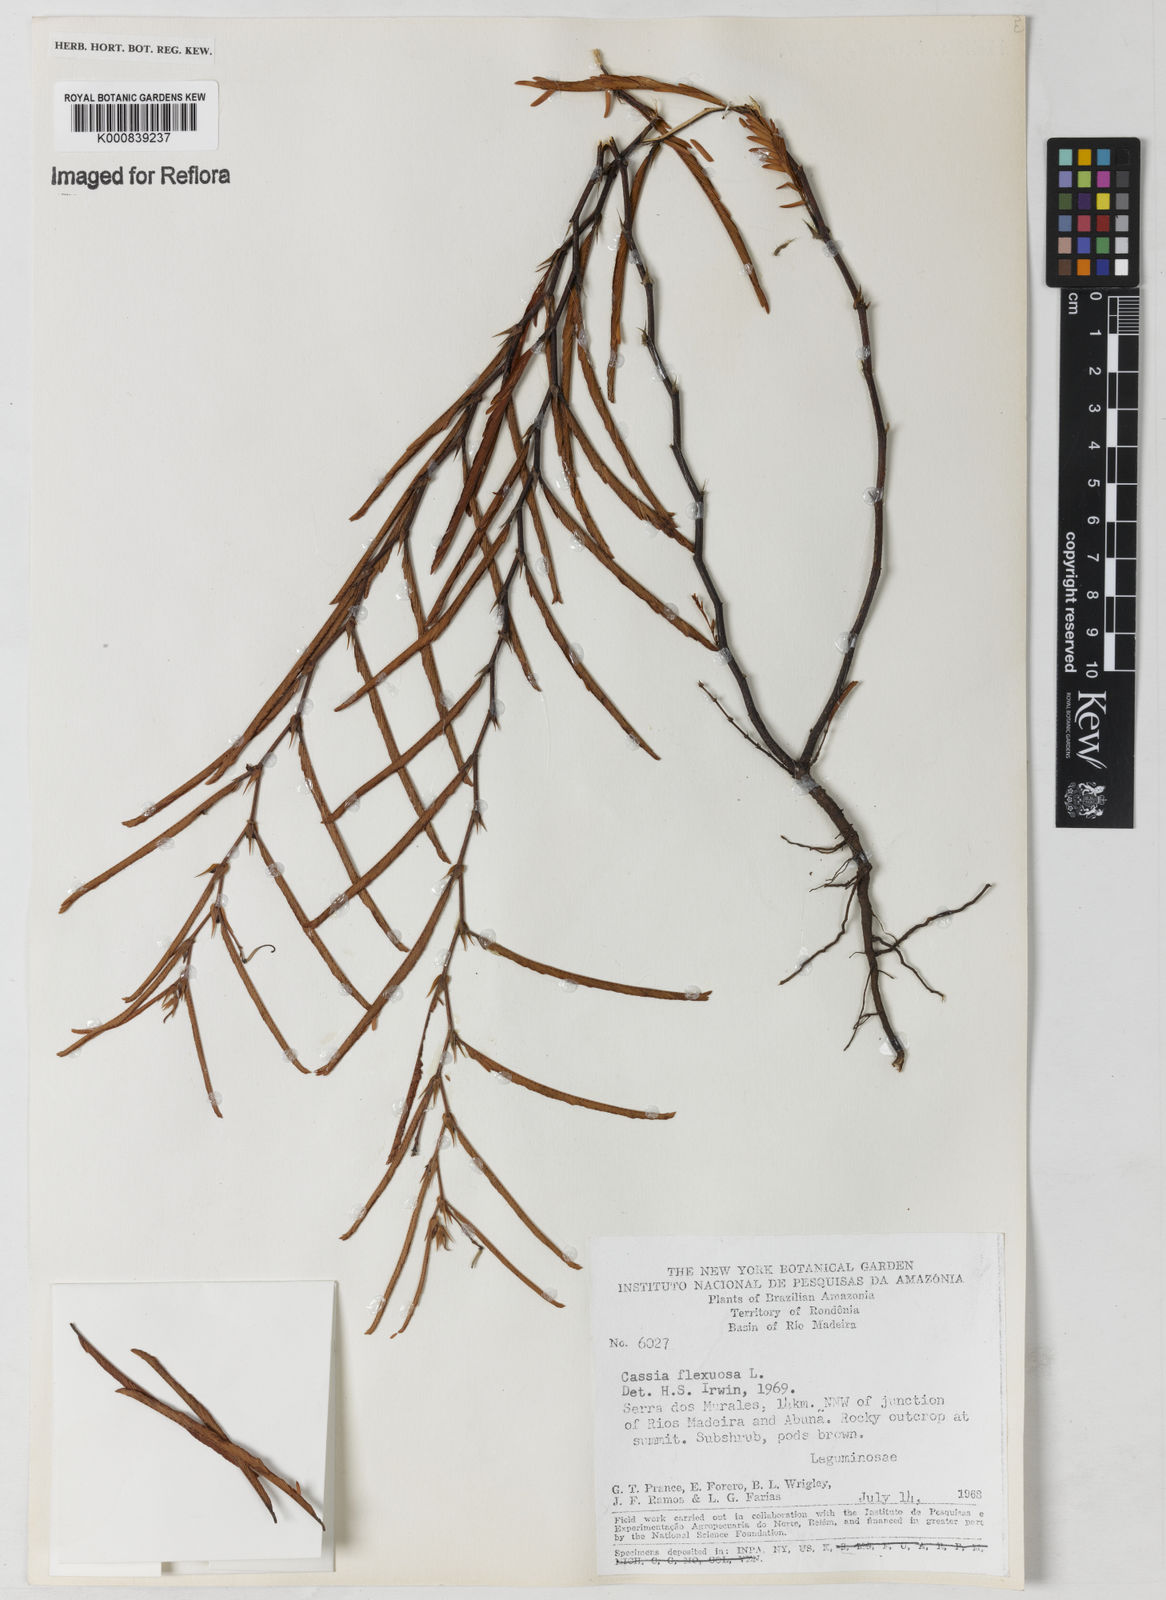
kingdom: Plantae
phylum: Tracheophyta
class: Magnoliopsida
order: Fabales
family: Fabaceae
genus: Chamaecrista
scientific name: Chamaecrista flexuosa
